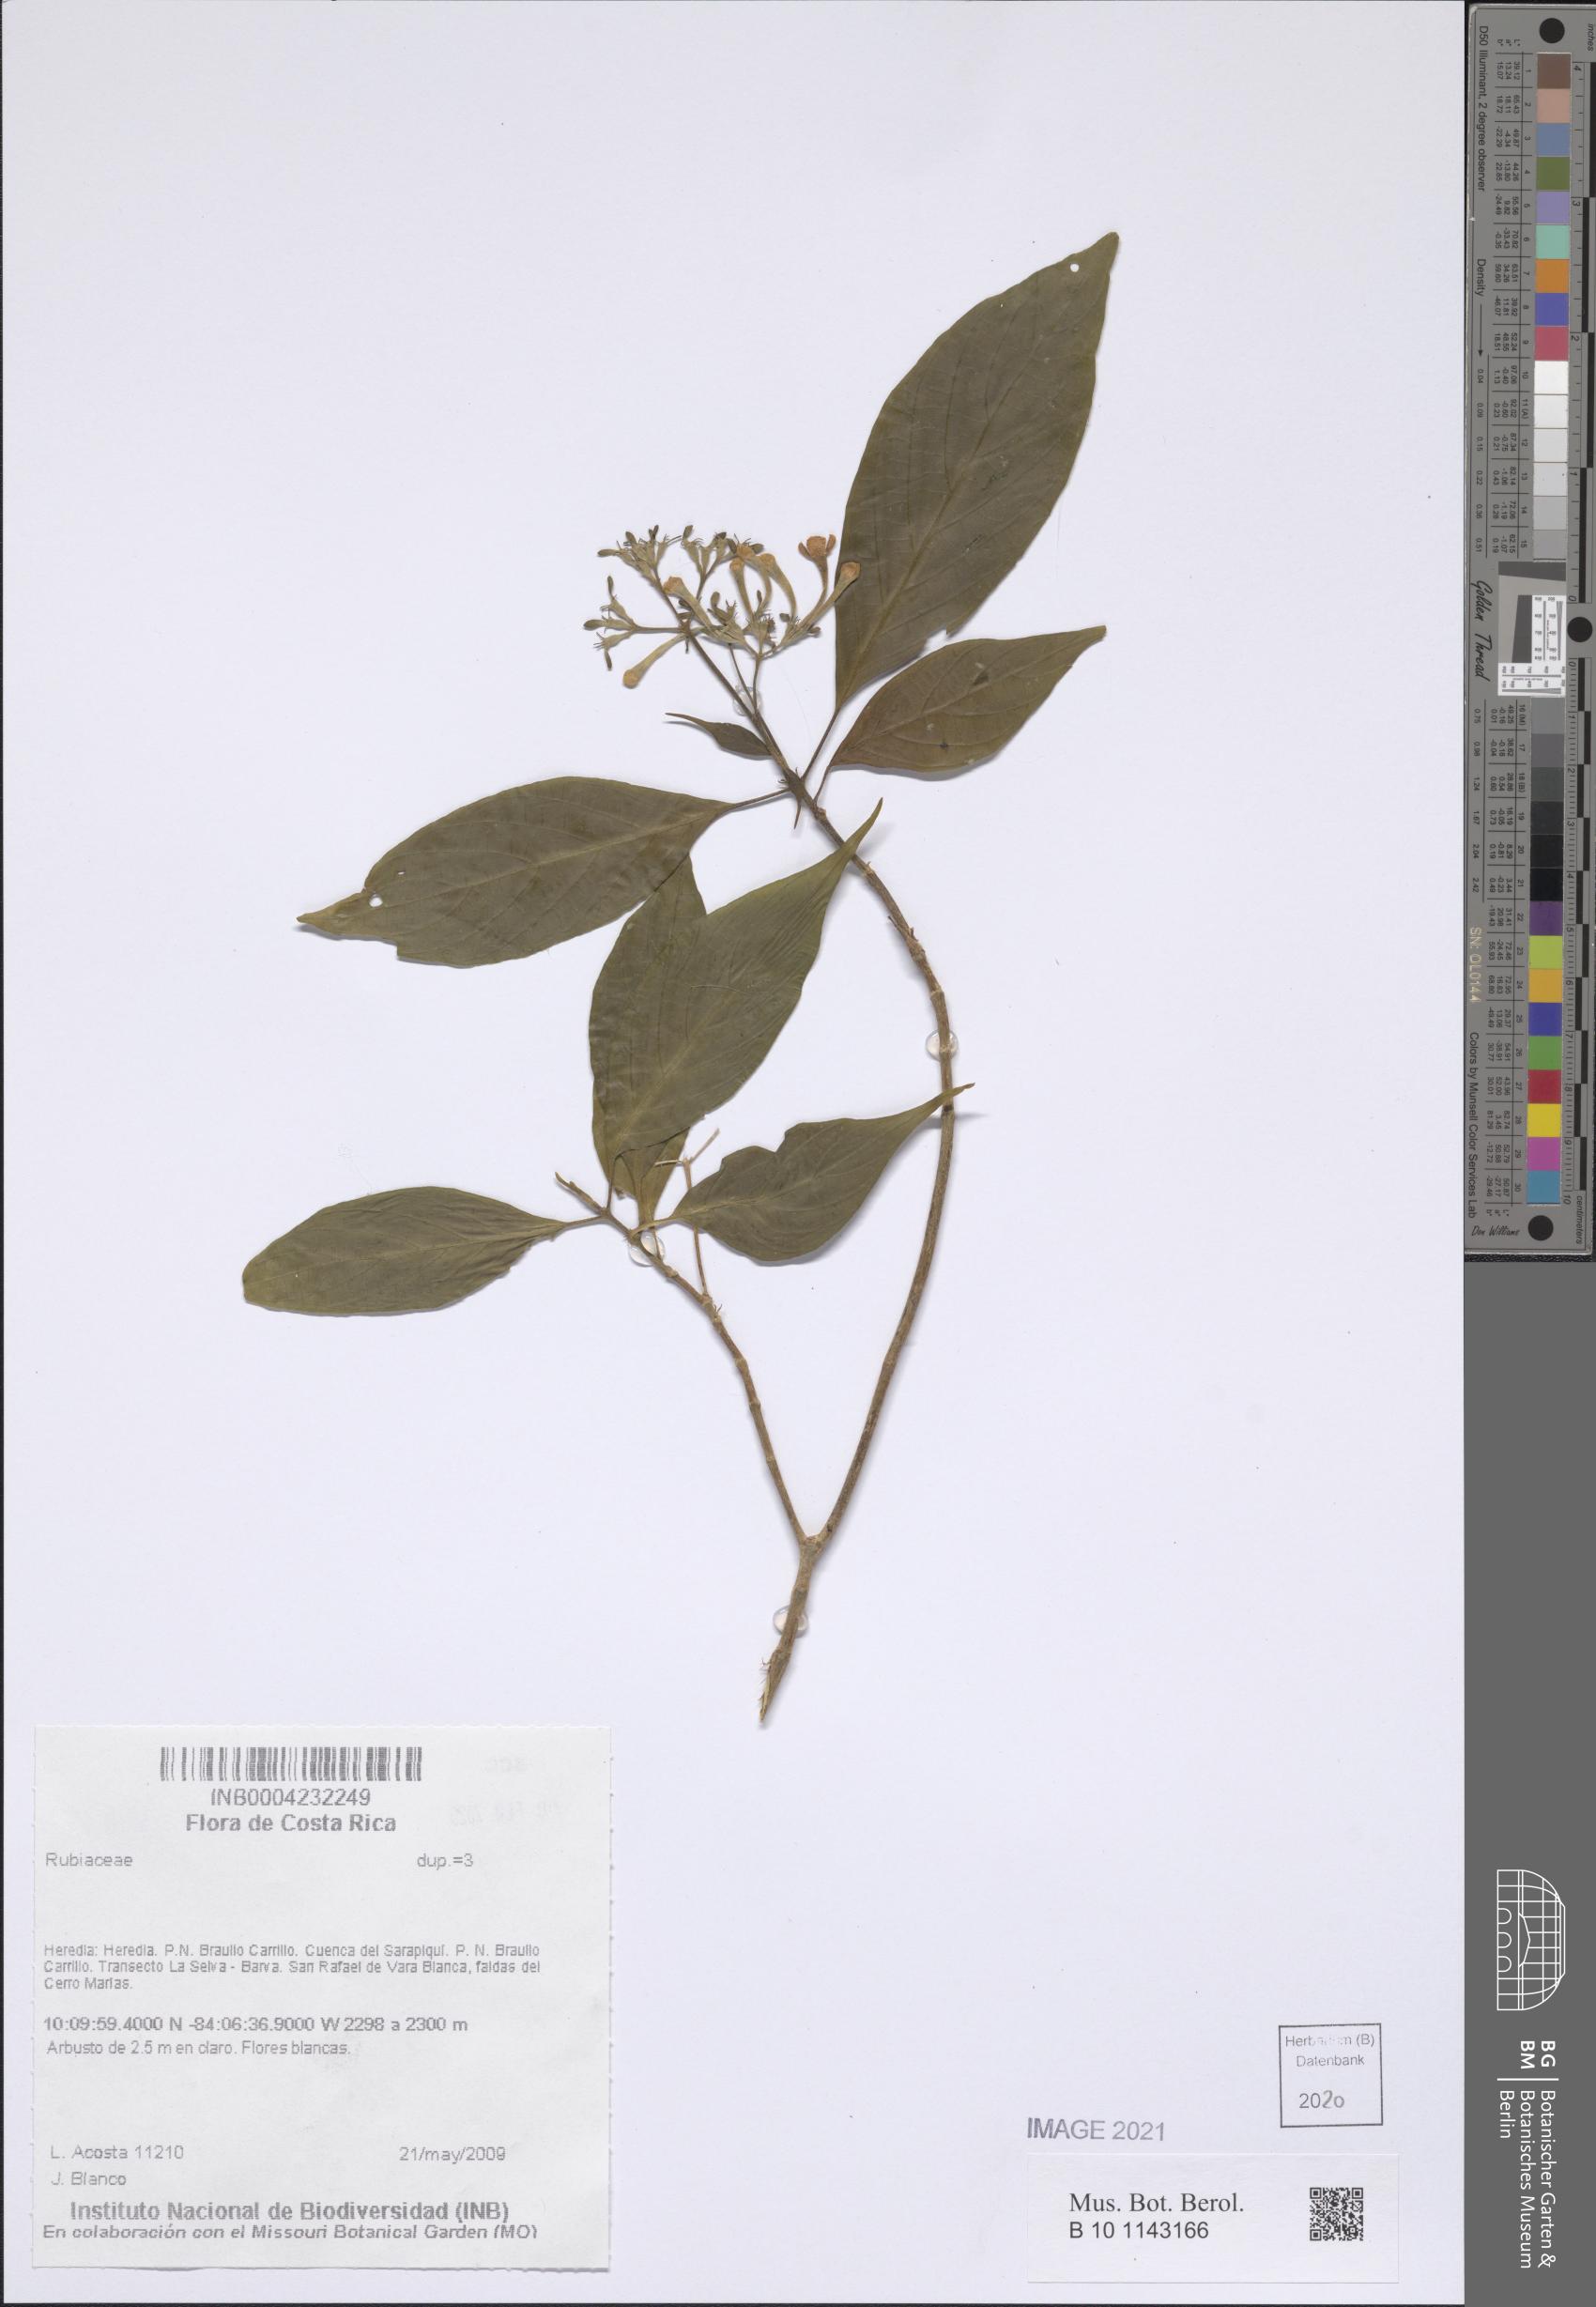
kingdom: Plantae
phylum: Tracheophyta
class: Magnoliopsida
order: Gentianales
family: Rubiaceae
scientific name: Rubiaceae
